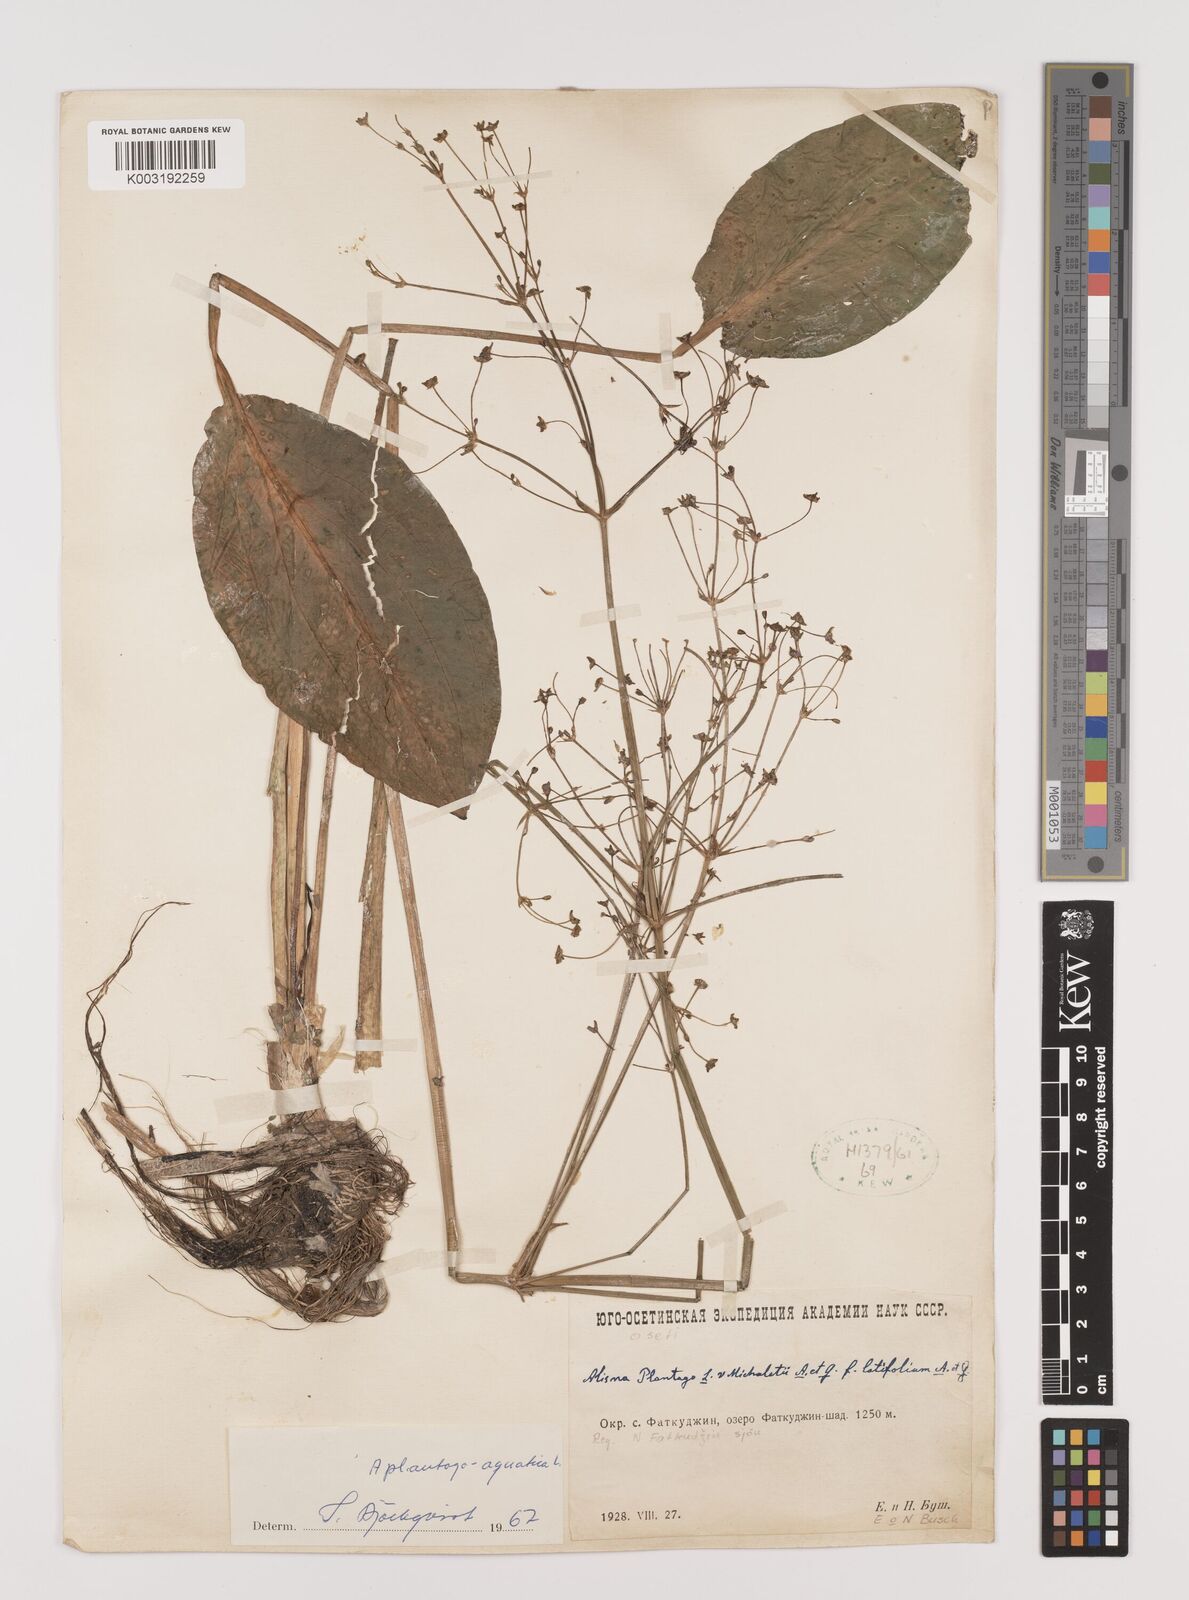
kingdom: Plantae
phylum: Tracheophyta
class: Liliopsida
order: Alismatales
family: Alismataceae
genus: Alisma
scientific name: Alisma plantago-aquatica
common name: Water-plantain
